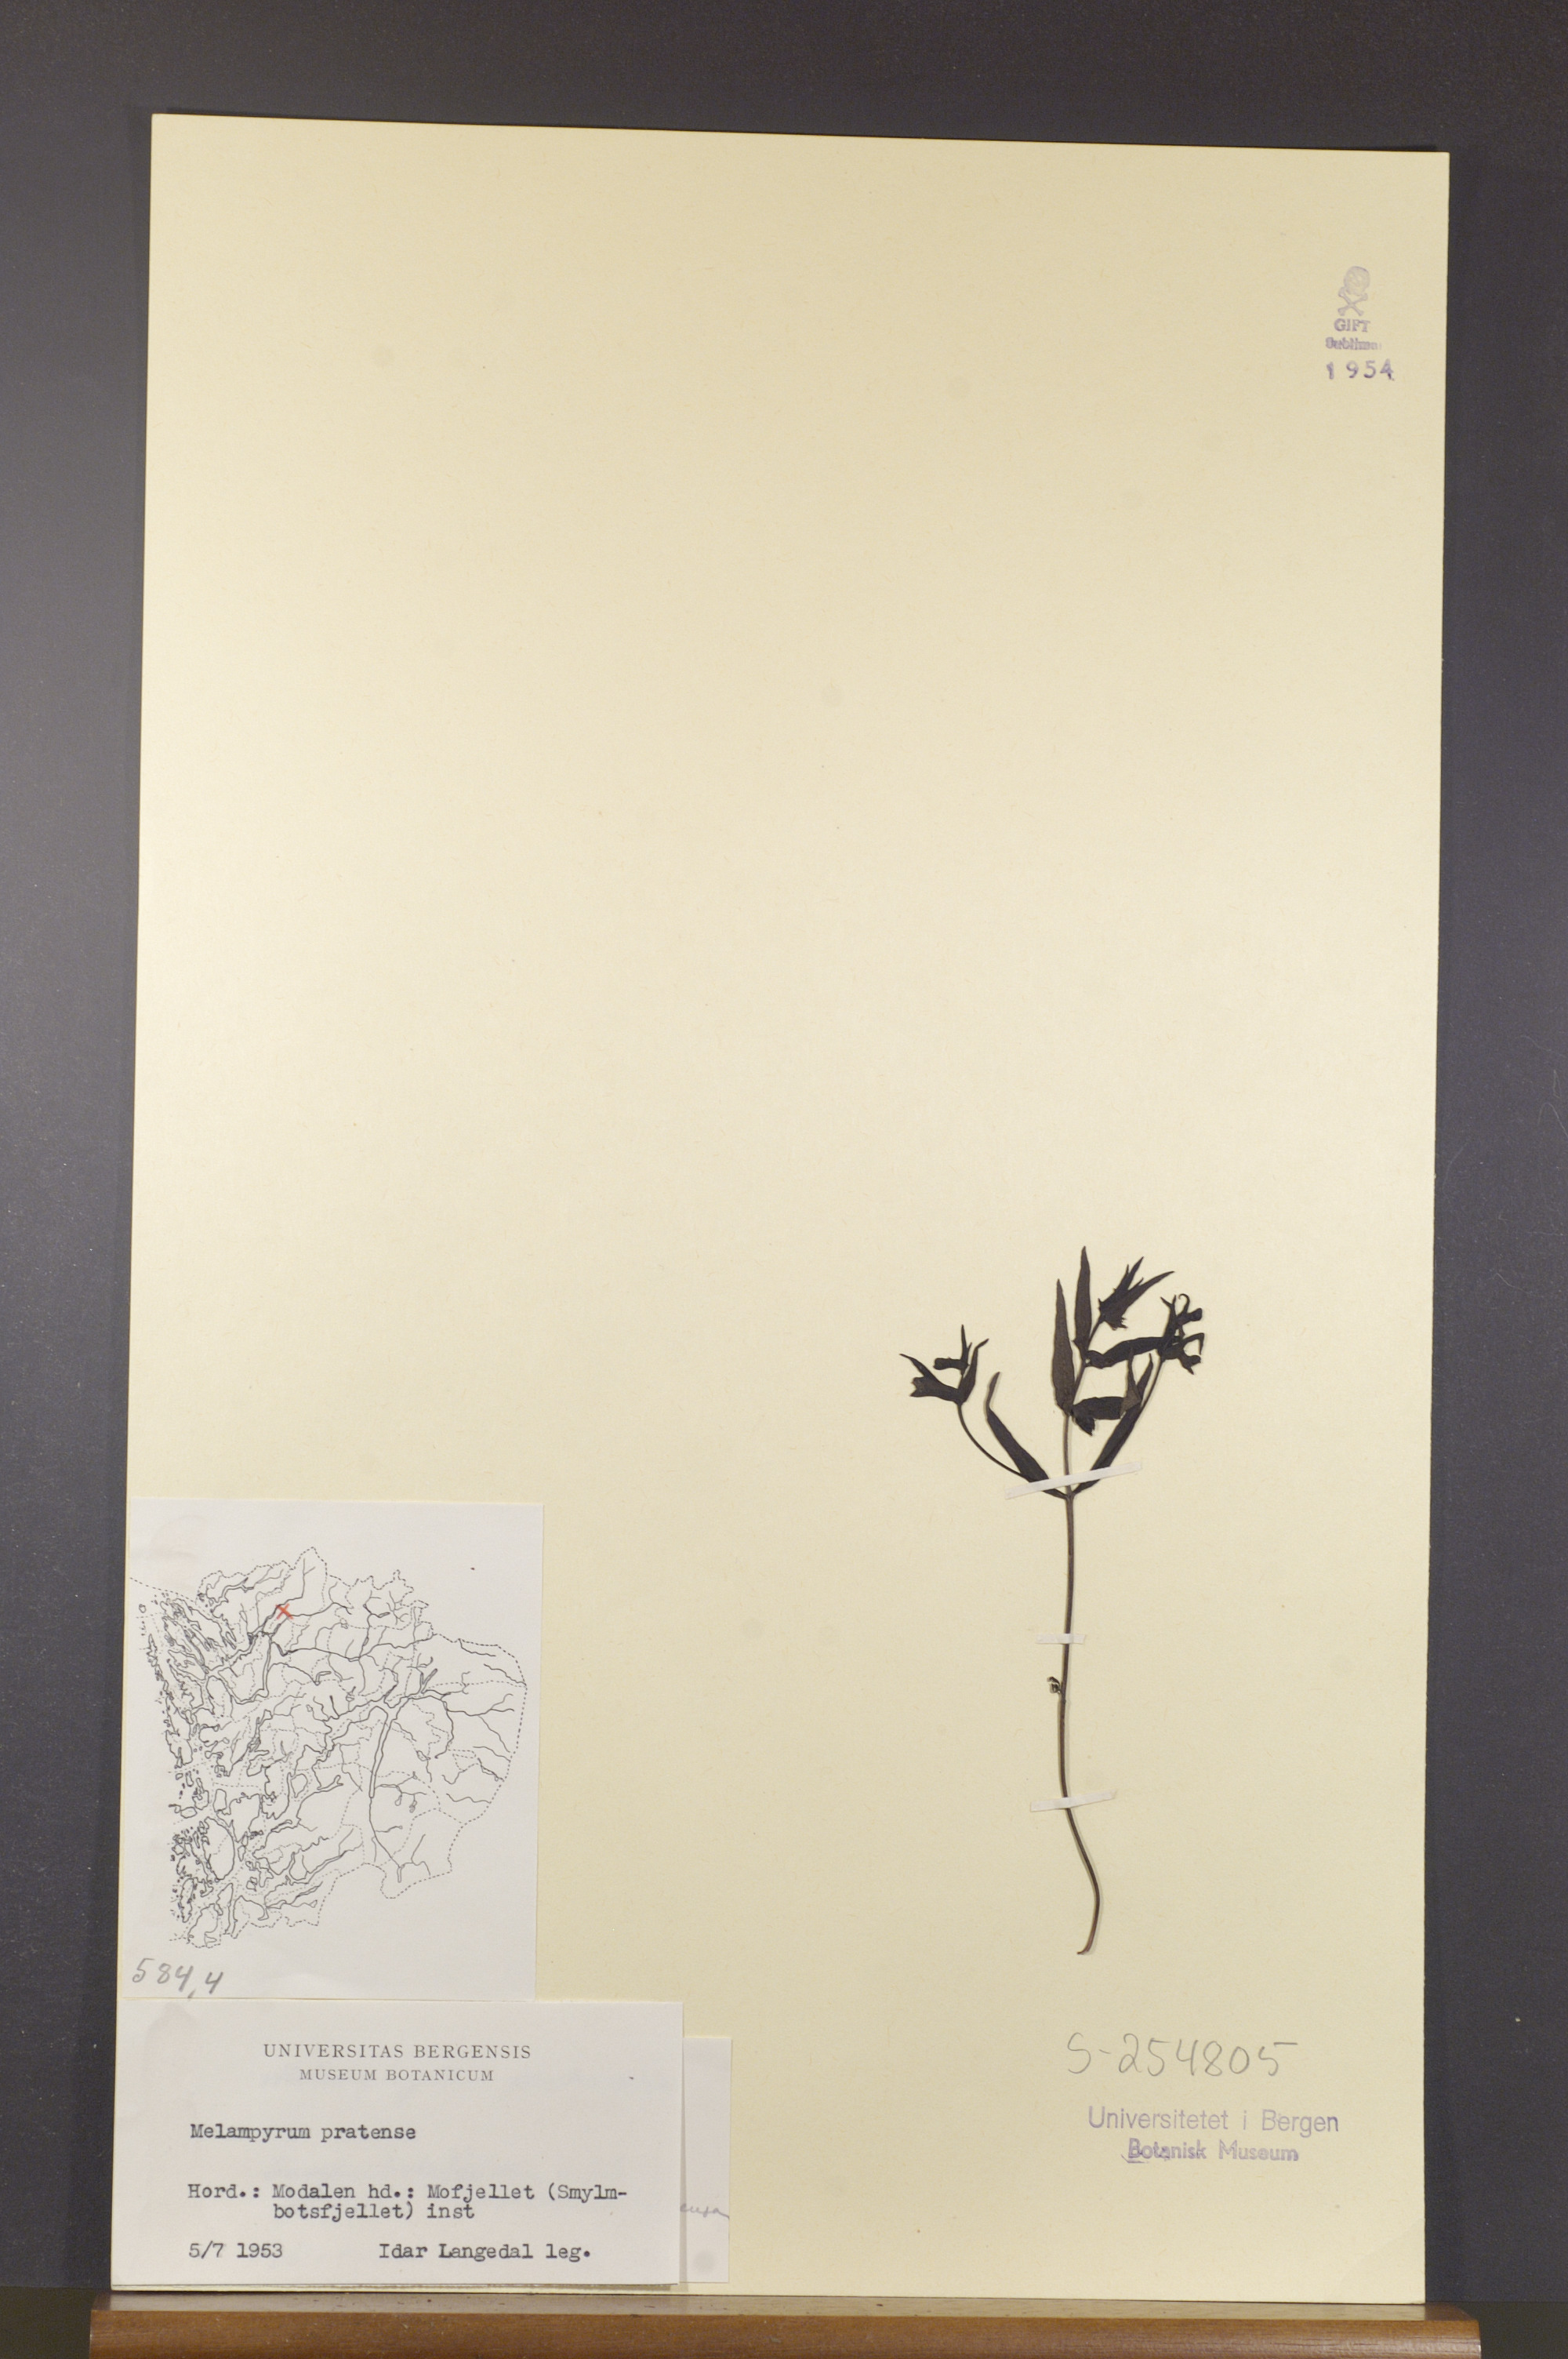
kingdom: Plantae
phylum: Tracheophyta
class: Magnoliopsida
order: Lamiales
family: Orobanchaceae
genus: Melampyrum
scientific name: Melampyrum pratense
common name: Common cow-wheat
